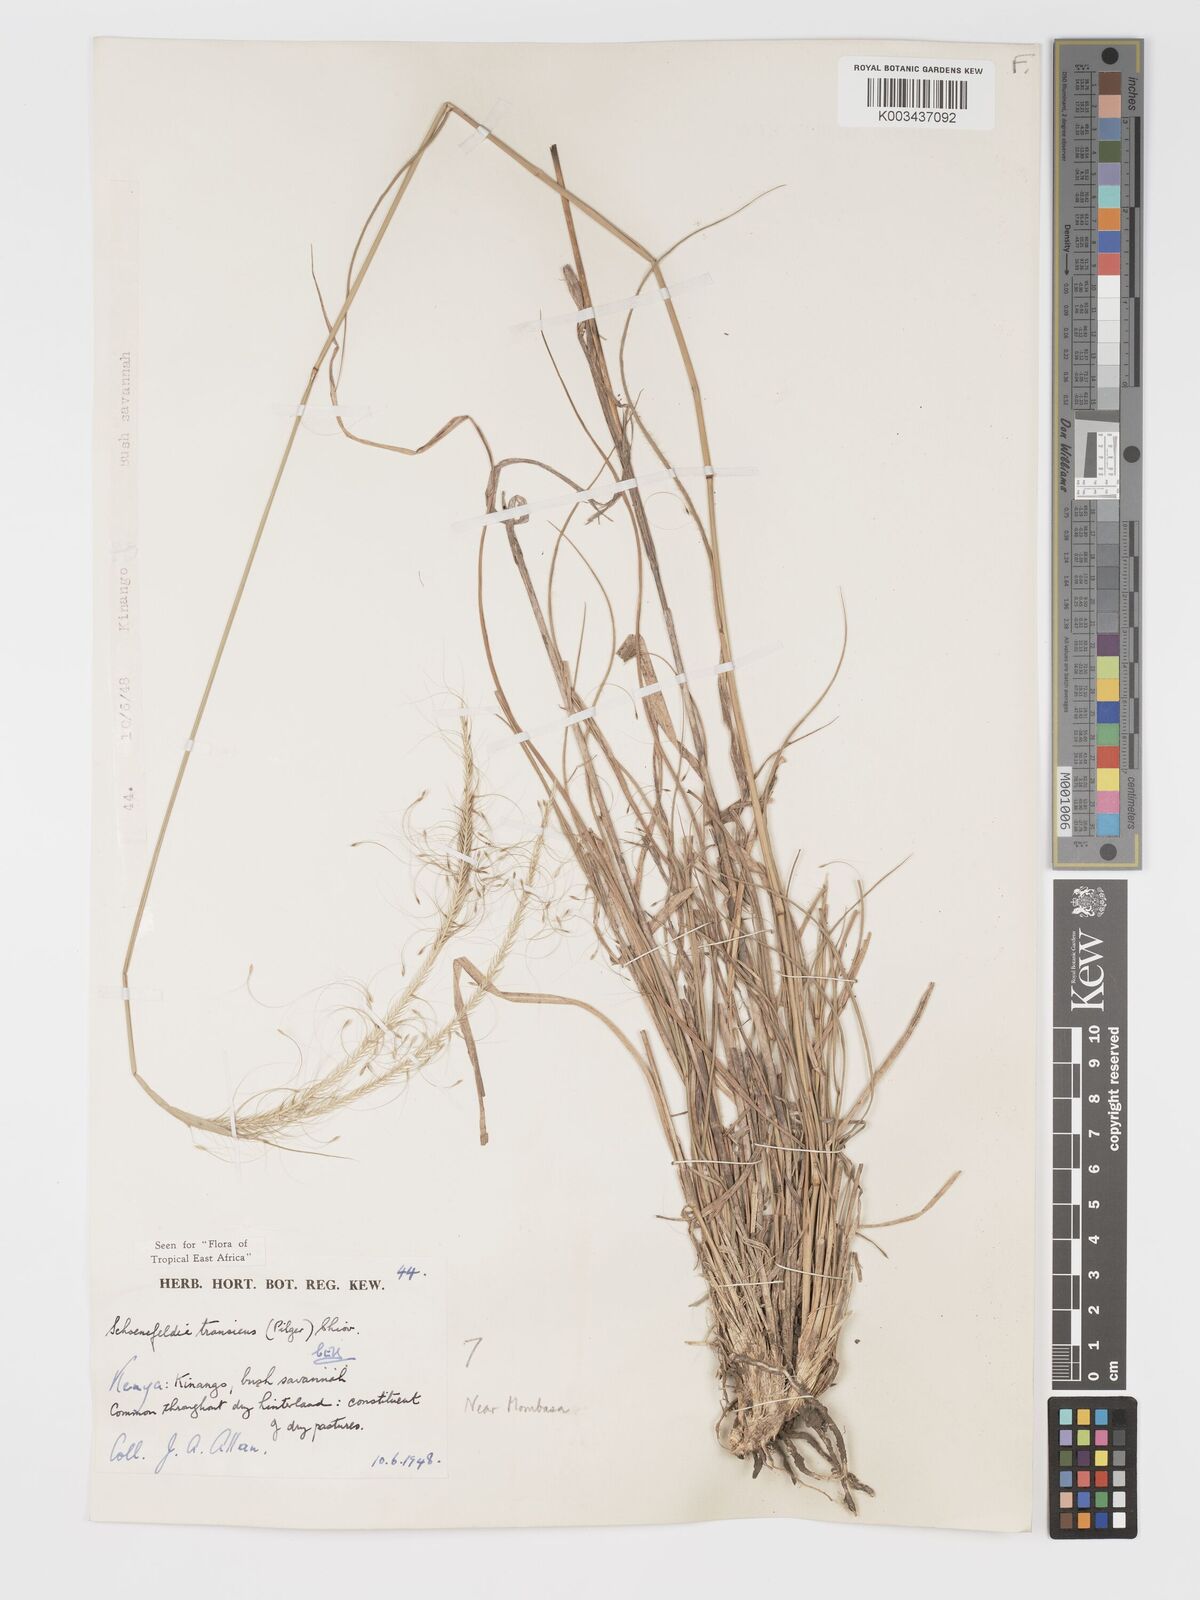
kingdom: Plantae
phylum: Tracheophyta
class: Liliopsida
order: Poales
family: Poaceae
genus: Schoenefeldia
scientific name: Schoenefeldia transiens
